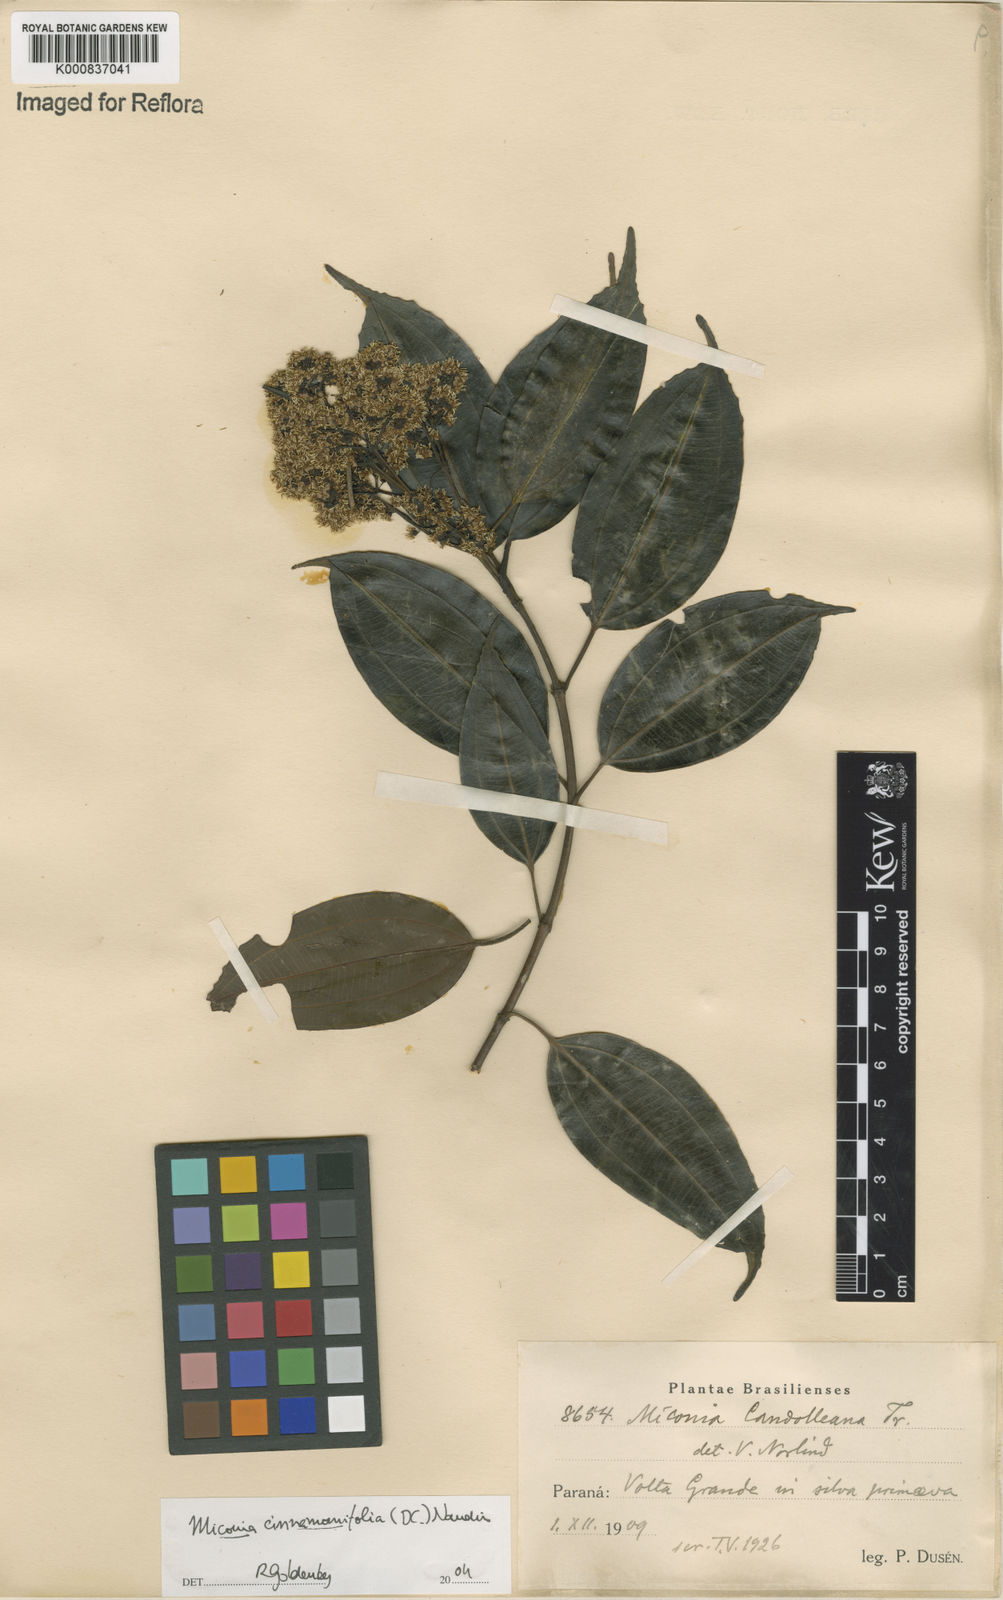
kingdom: Plantae
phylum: Tracheophyta
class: Magnoliopsida
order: Myrtales
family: Melastomataceae
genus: Miconia
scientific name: Miconia cinnamomifolia
